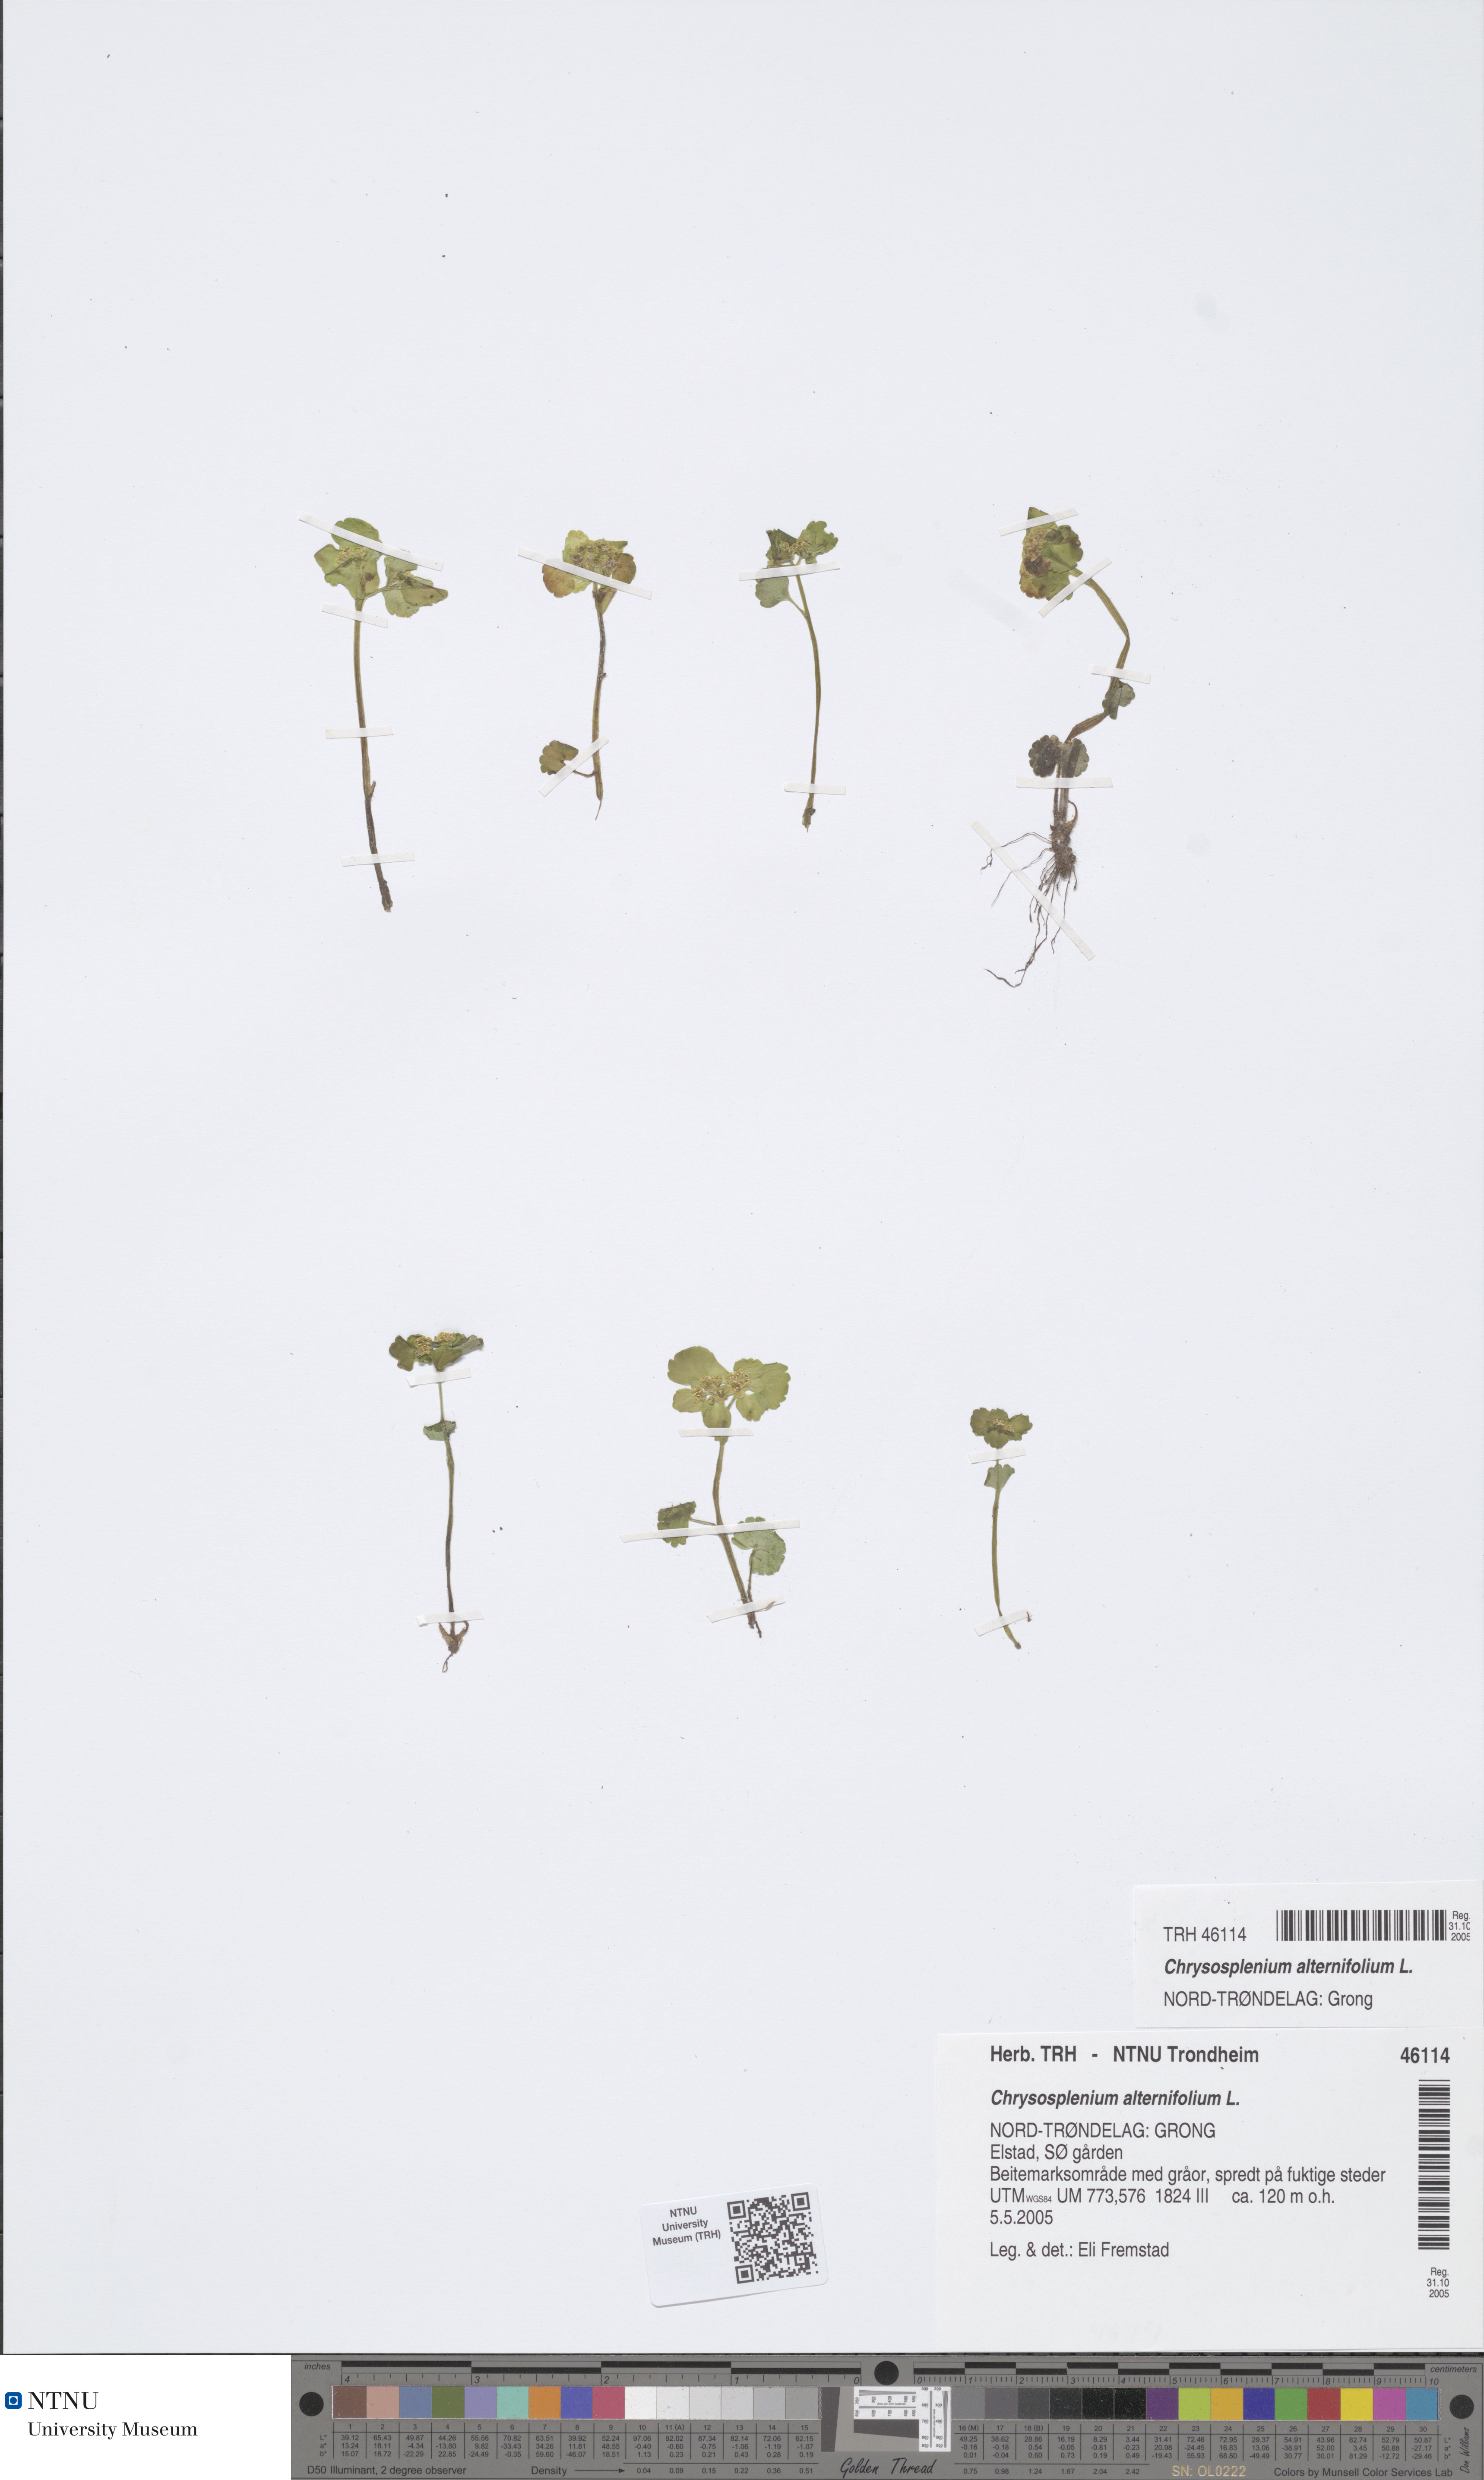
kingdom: Plantae
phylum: Tracheophyta
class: Magnoliopsida
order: Saxifragales
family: Saxifragaceae
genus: Chrysosplenium
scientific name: Chrysosplenium alternifolium
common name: Alternate-leaved golden-saxifrage
